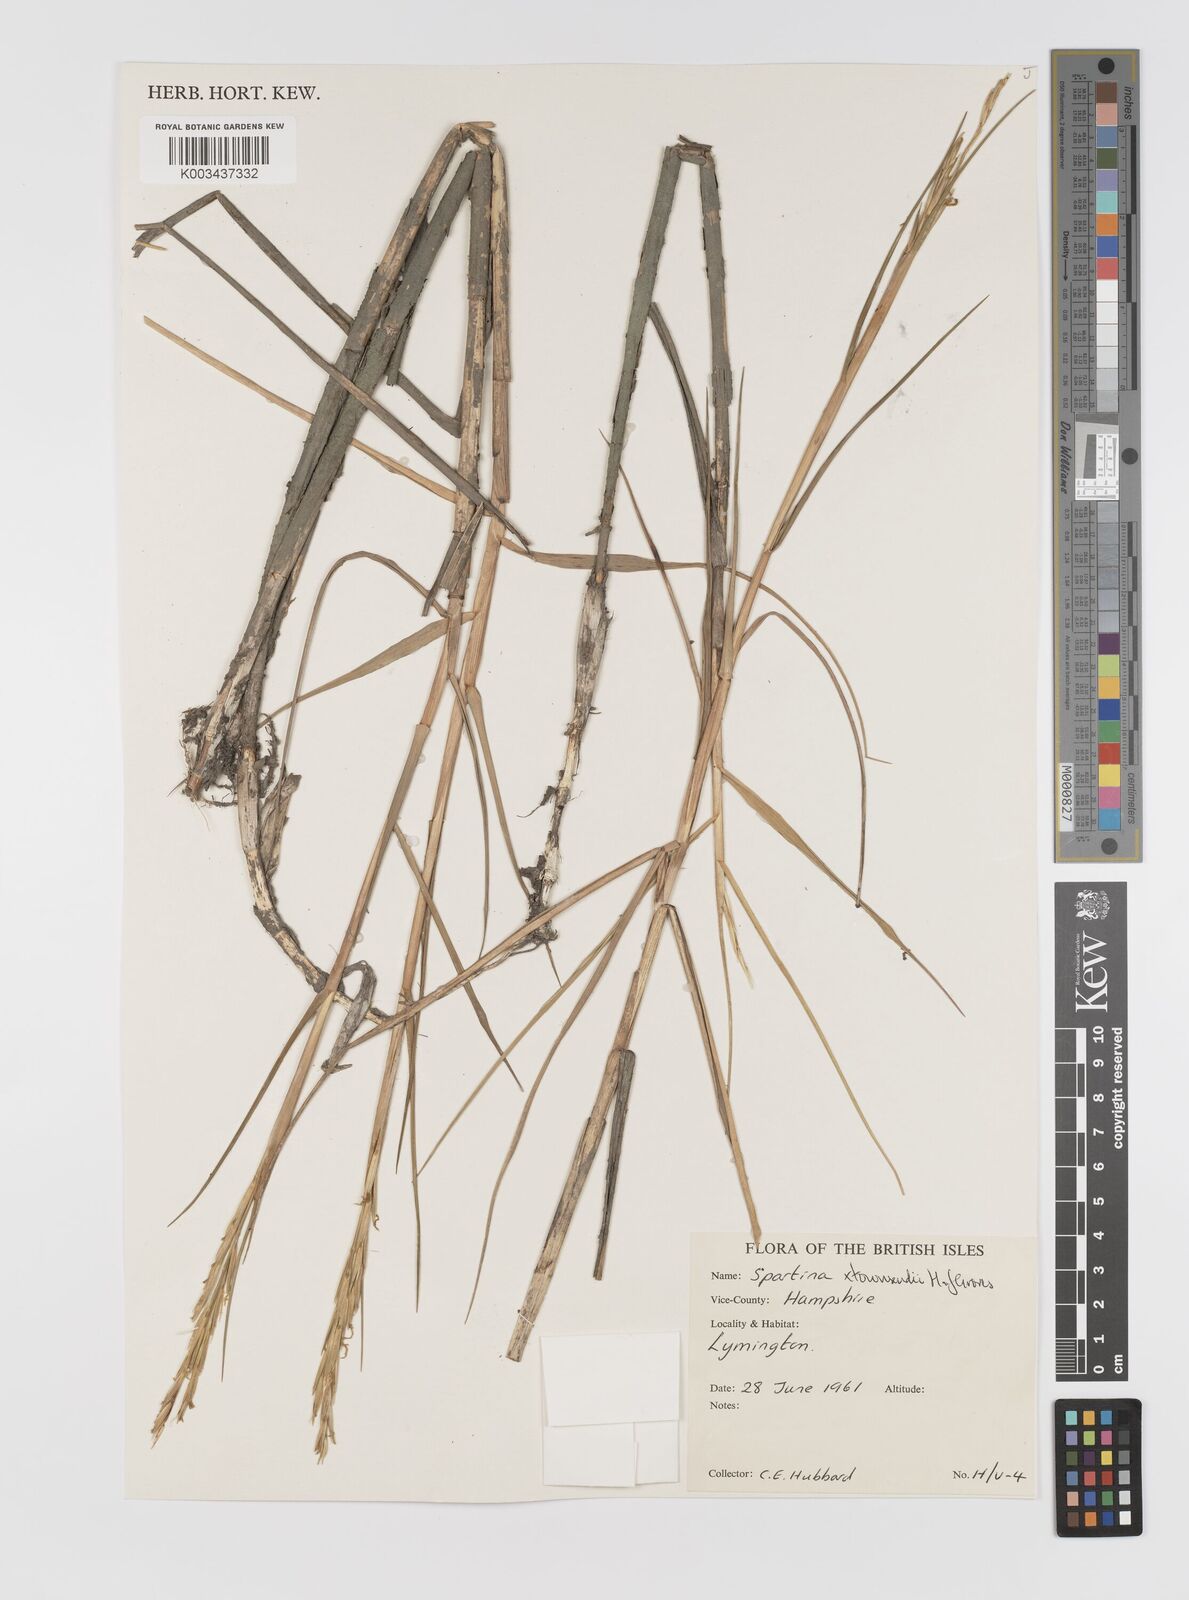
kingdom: Plantae
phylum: Tracheophyta
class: Liliopsida
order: Poales
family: Poaceae
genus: Sporobolus
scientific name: Sporobolus townsendii
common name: Townsend's cordgrass
